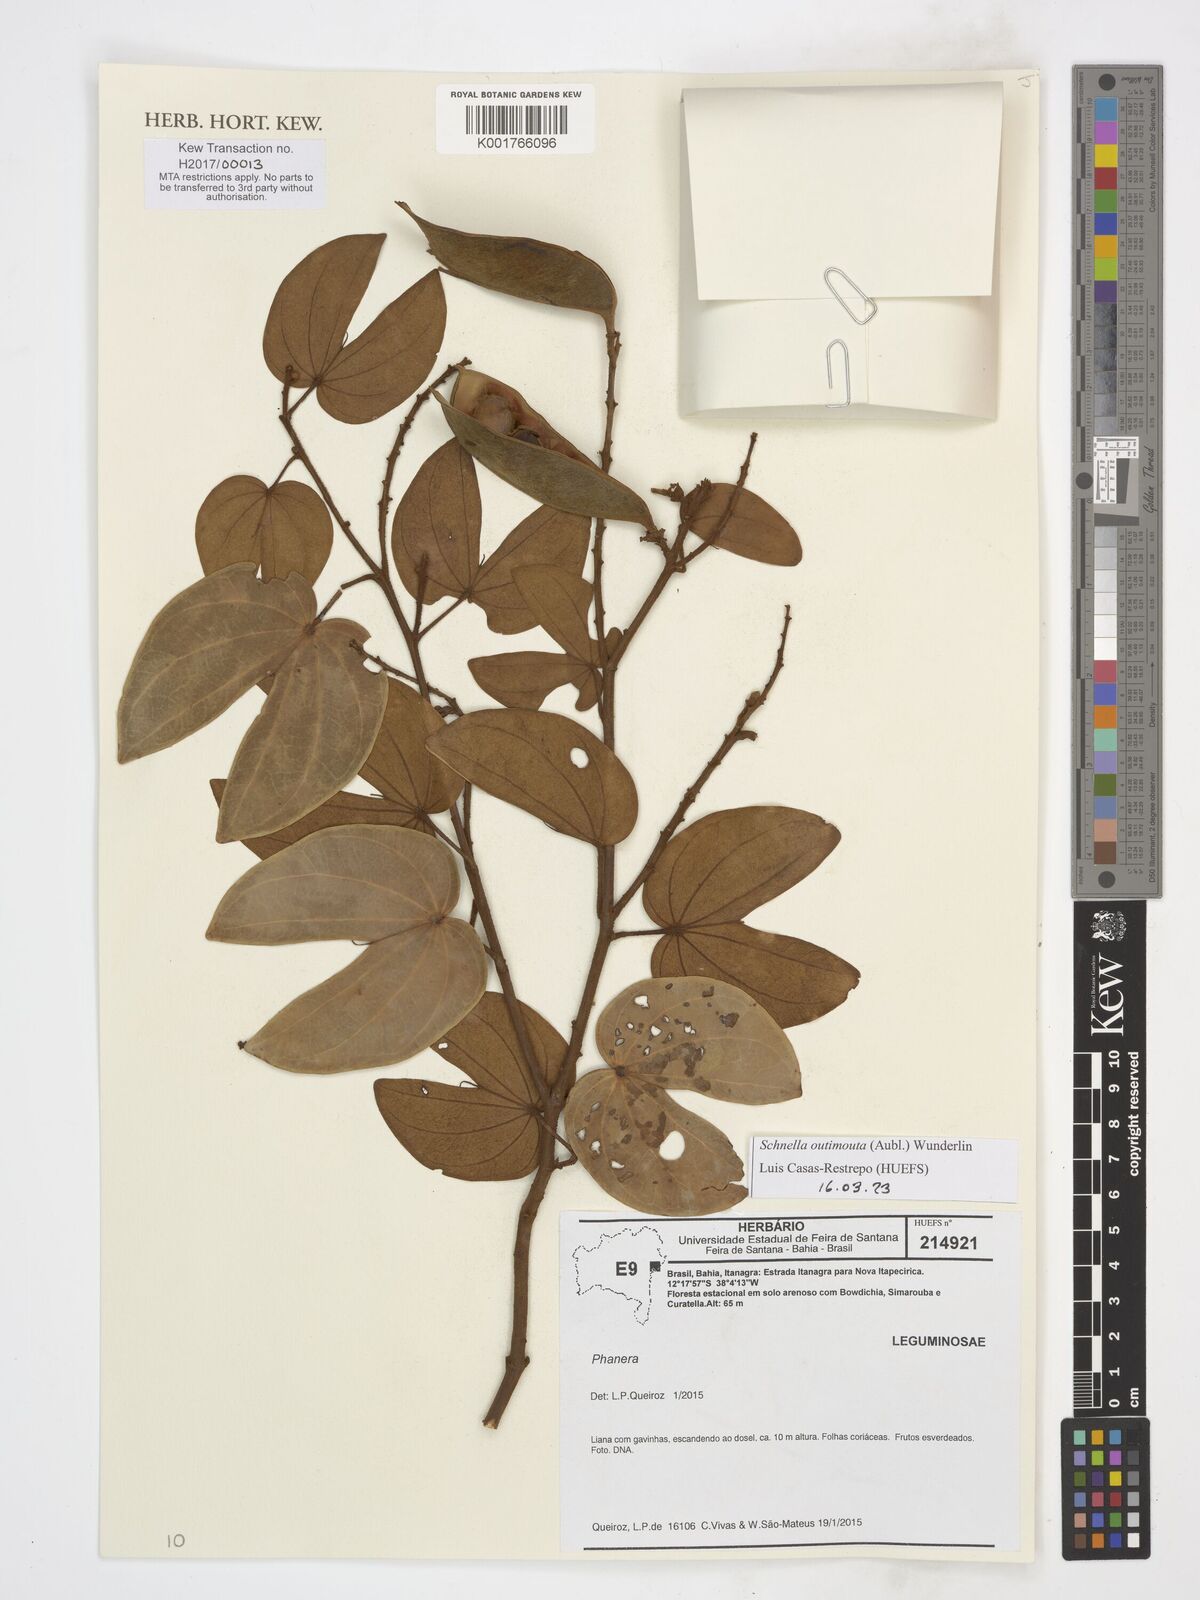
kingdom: Plantae
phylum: Tracheophyta
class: Magnoliopsida
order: Fabales
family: Fabaceae
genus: Schnella
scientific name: Schnella outimouta
